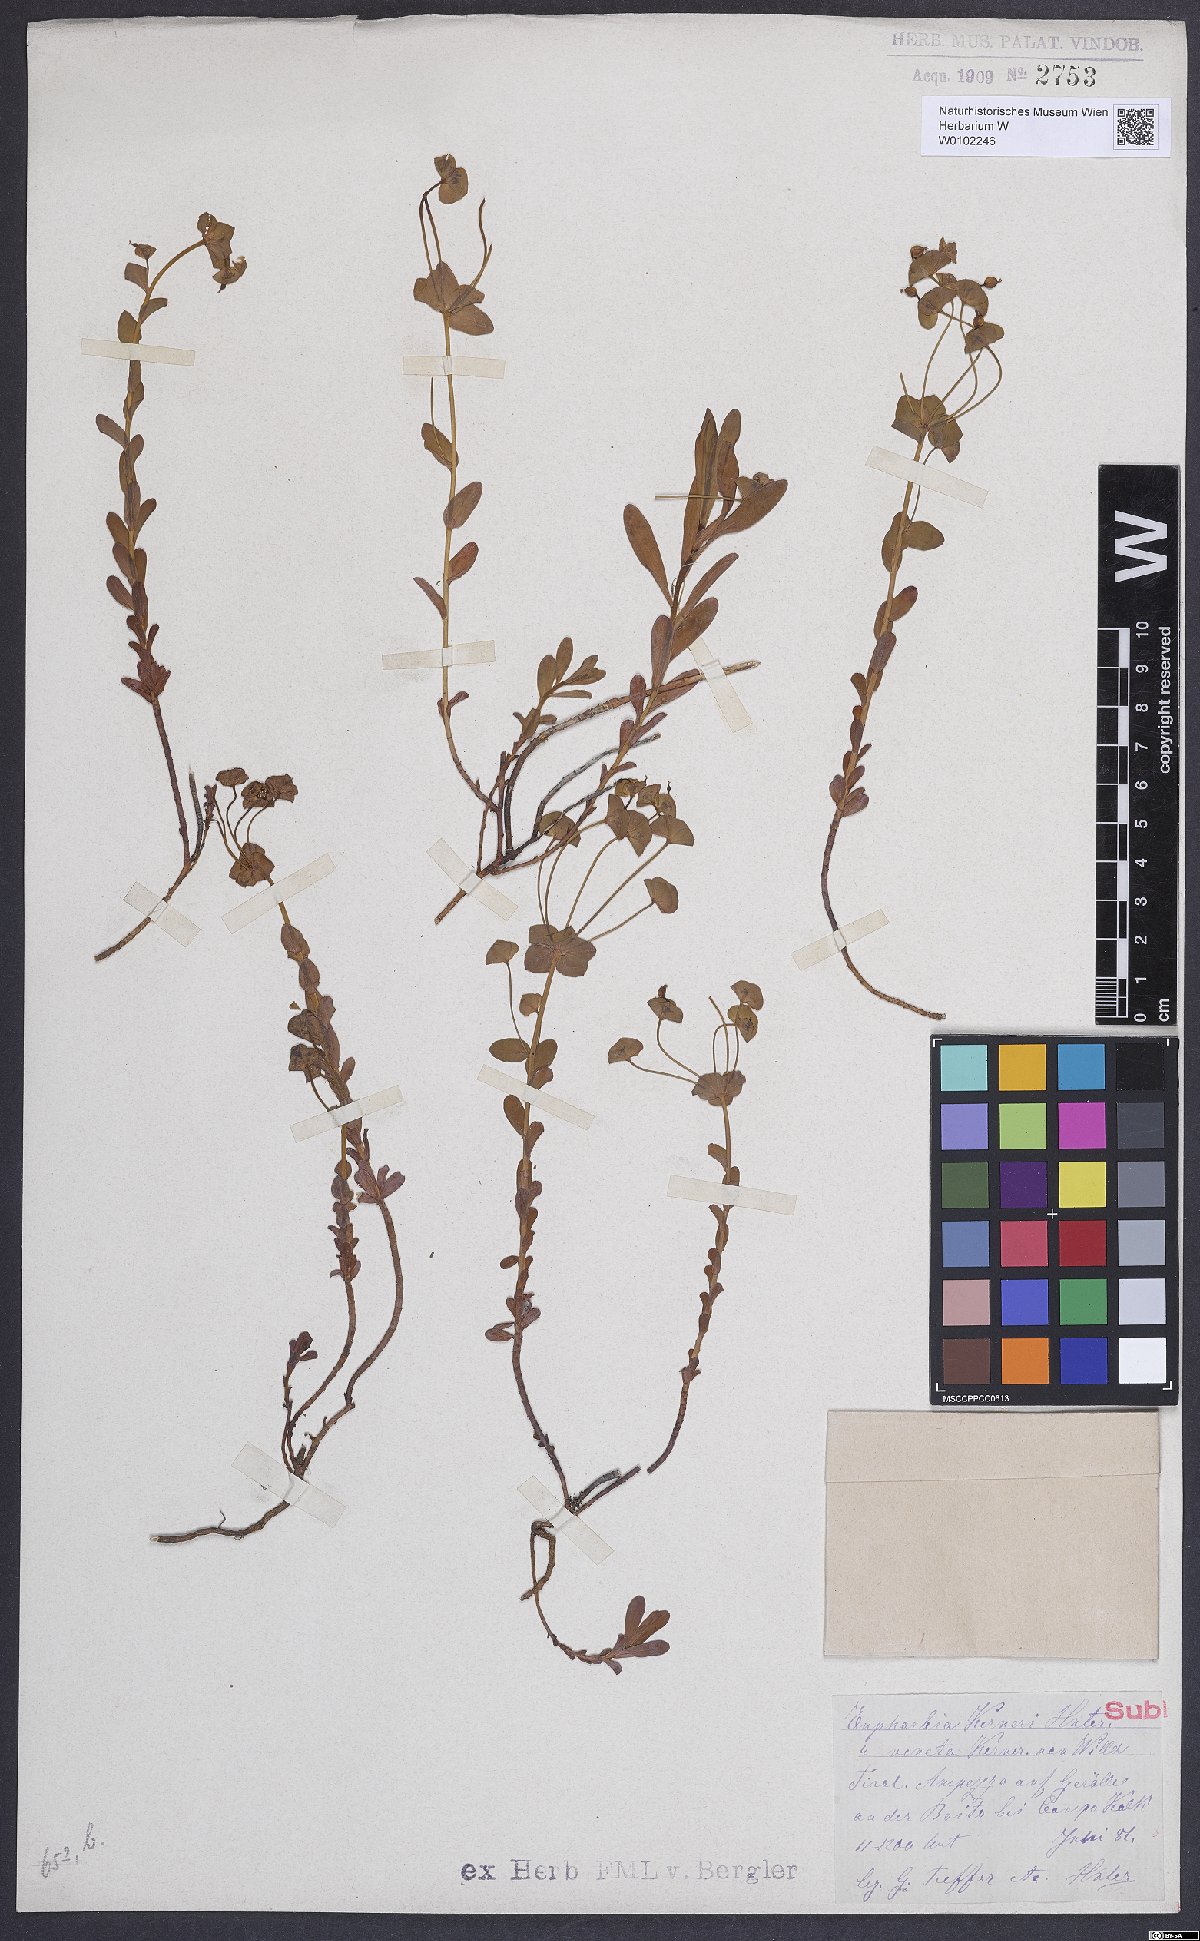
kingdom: Plantae
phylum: Tracheophyta
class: Magnoliopsida
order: Malpighiales
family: Euphorbiaceae
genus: Euphorbia
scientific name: Euphorbia kerneri
